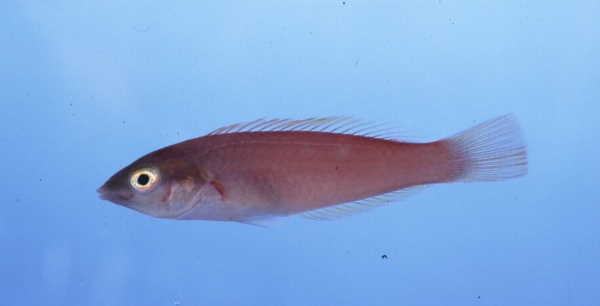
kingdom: Animalia
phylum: Chordata
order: Perciformes
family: Labridae
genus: Pseudojuloides
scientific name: Pseudojuloides cerasinus
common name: Smalltail wrasse
